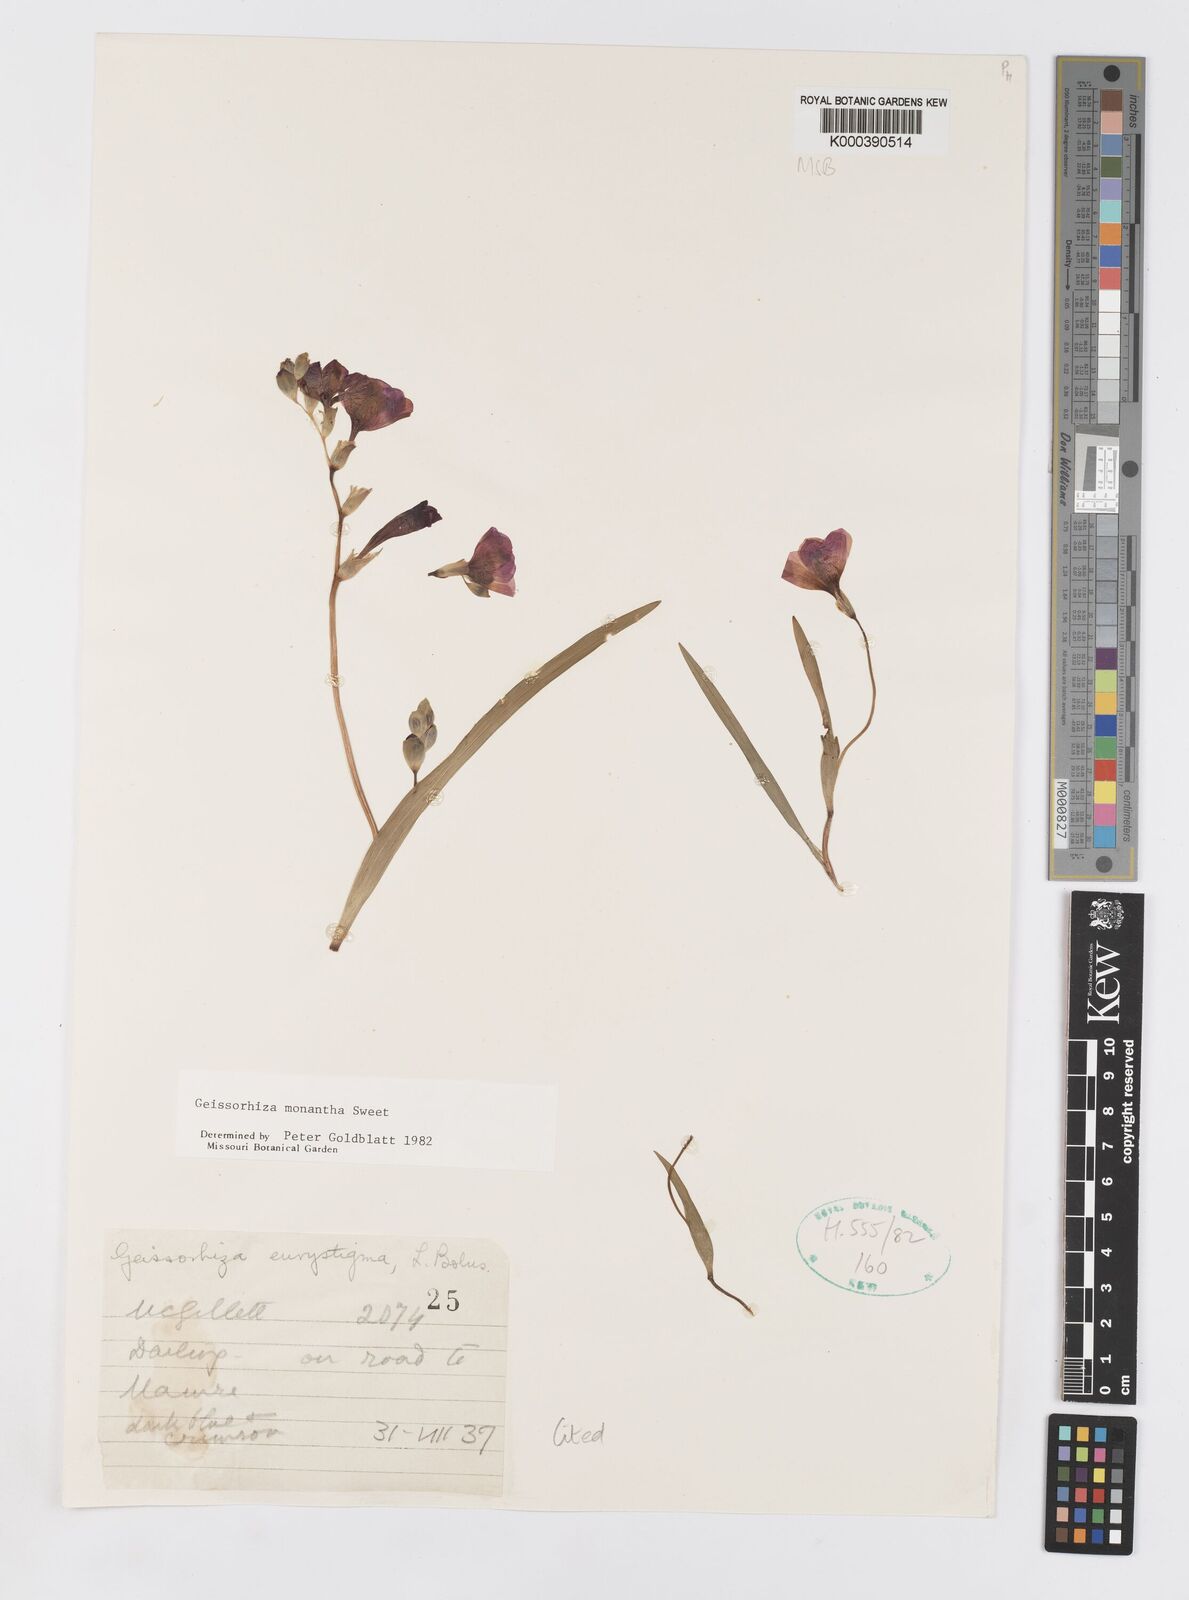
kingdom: Plantae
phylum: Tracheophyta
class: Liliopsida
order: Asparagales
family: Iridaceae
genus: Geissorhiza
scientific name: Geissorhiza eurystigma
